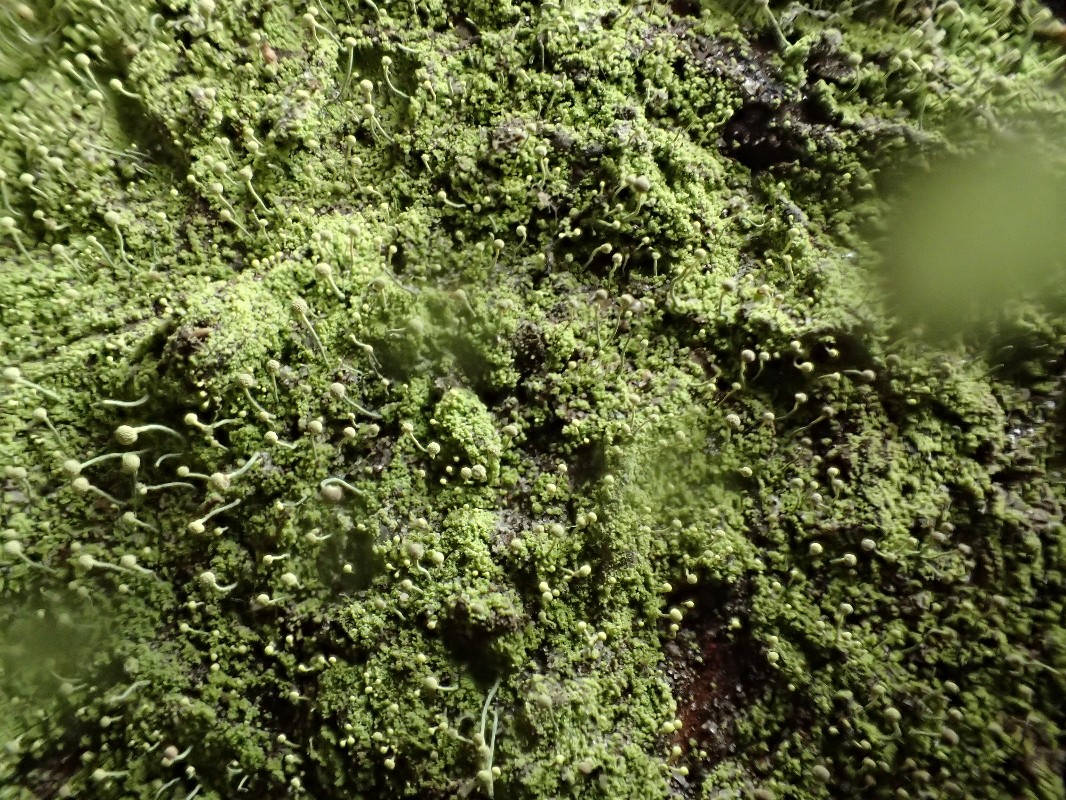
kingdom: Fungi
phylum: Ascomycota
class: Coniocybomycetes
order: Coniocybales
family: Coniocybaceae
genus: Chaenotheca
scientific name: Chaenotheca furfuracea
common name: tørve-knappenålslav
